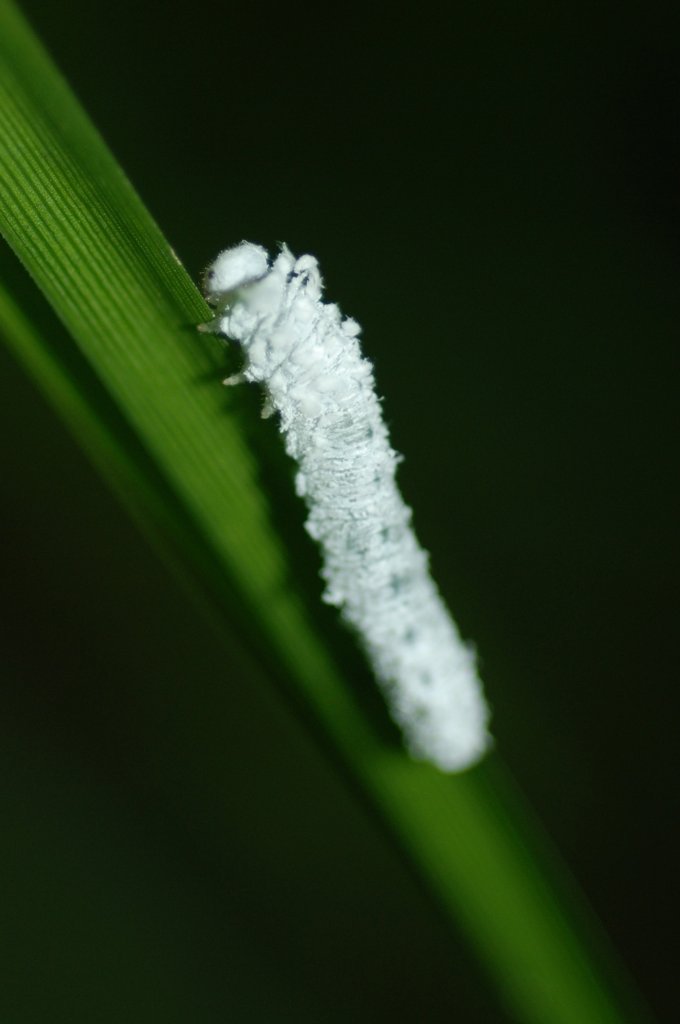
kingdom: Animalia
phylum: Arthropoda
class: Insecta
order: Lepidoptera
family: Lycaenidae
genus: Feniseca
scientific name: Feniseca tarquinius
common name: Harvester
